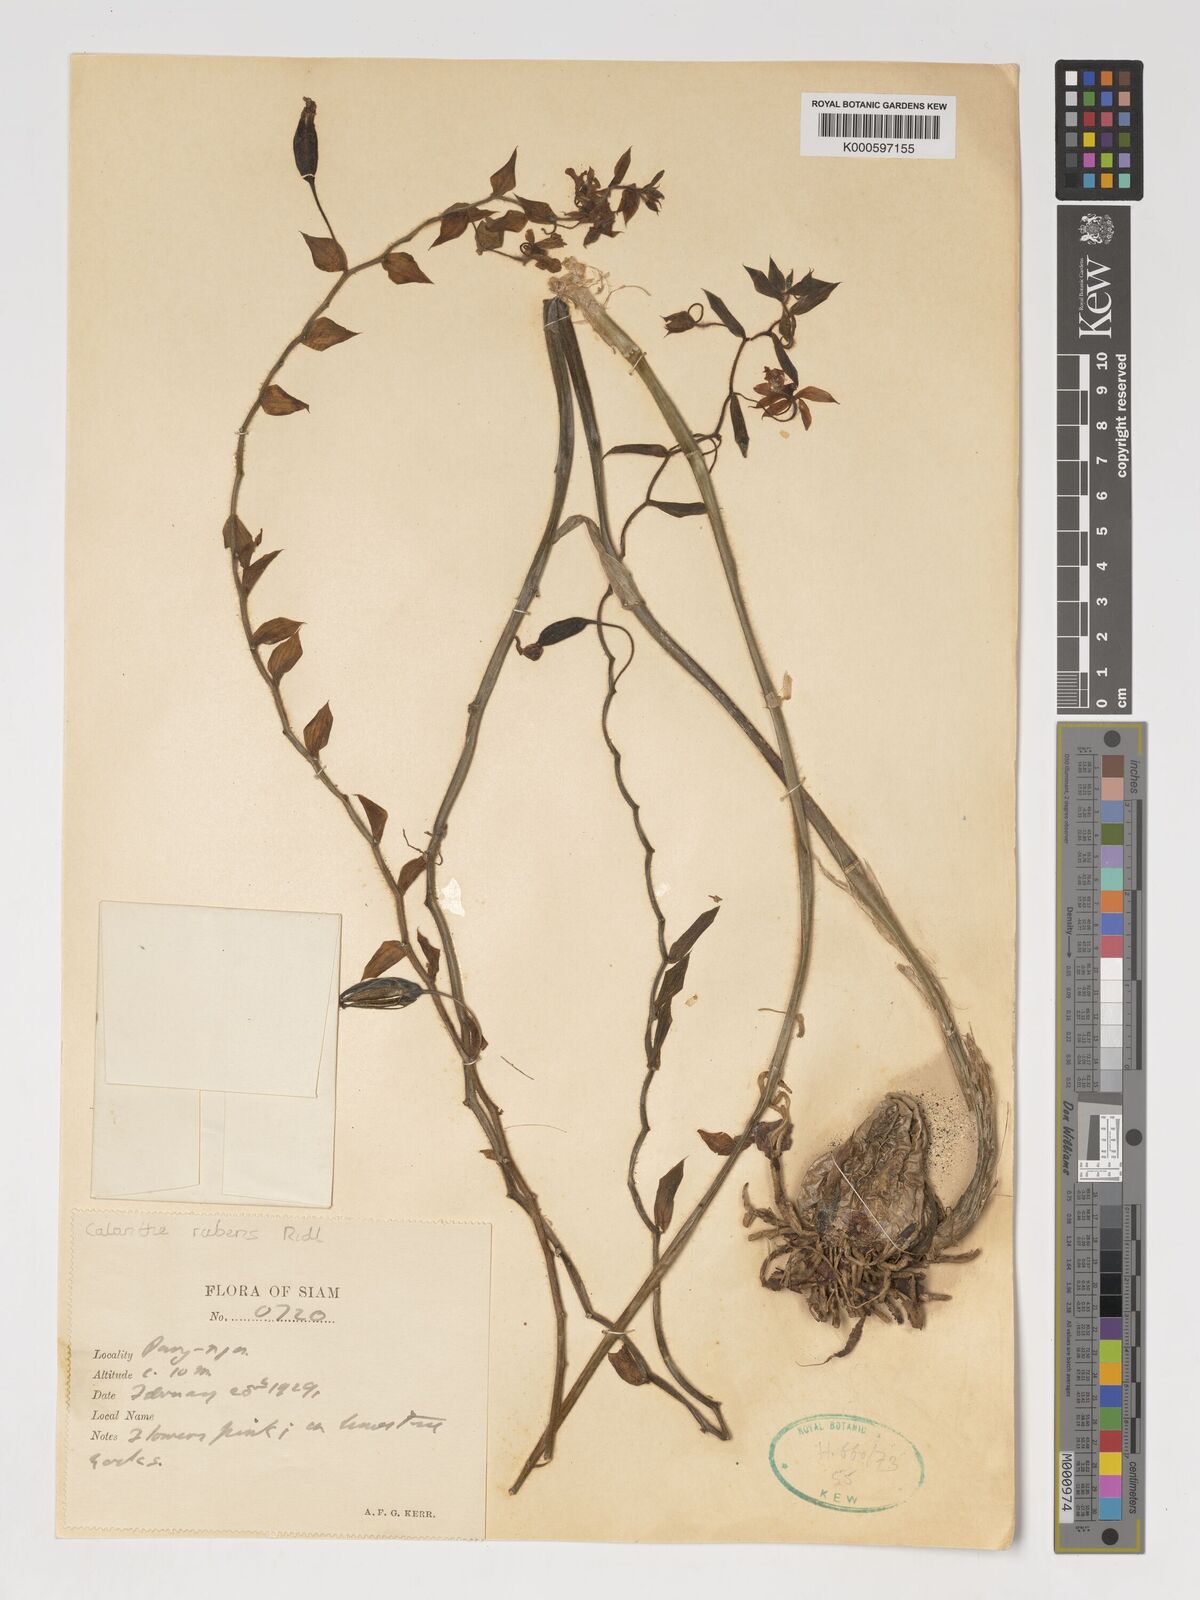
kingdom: Plantae
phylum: Tracheophyta
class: Liliopsida
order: Asparagales
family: Orchidaceae
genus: Calanthe
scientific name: Calanthe rubens
